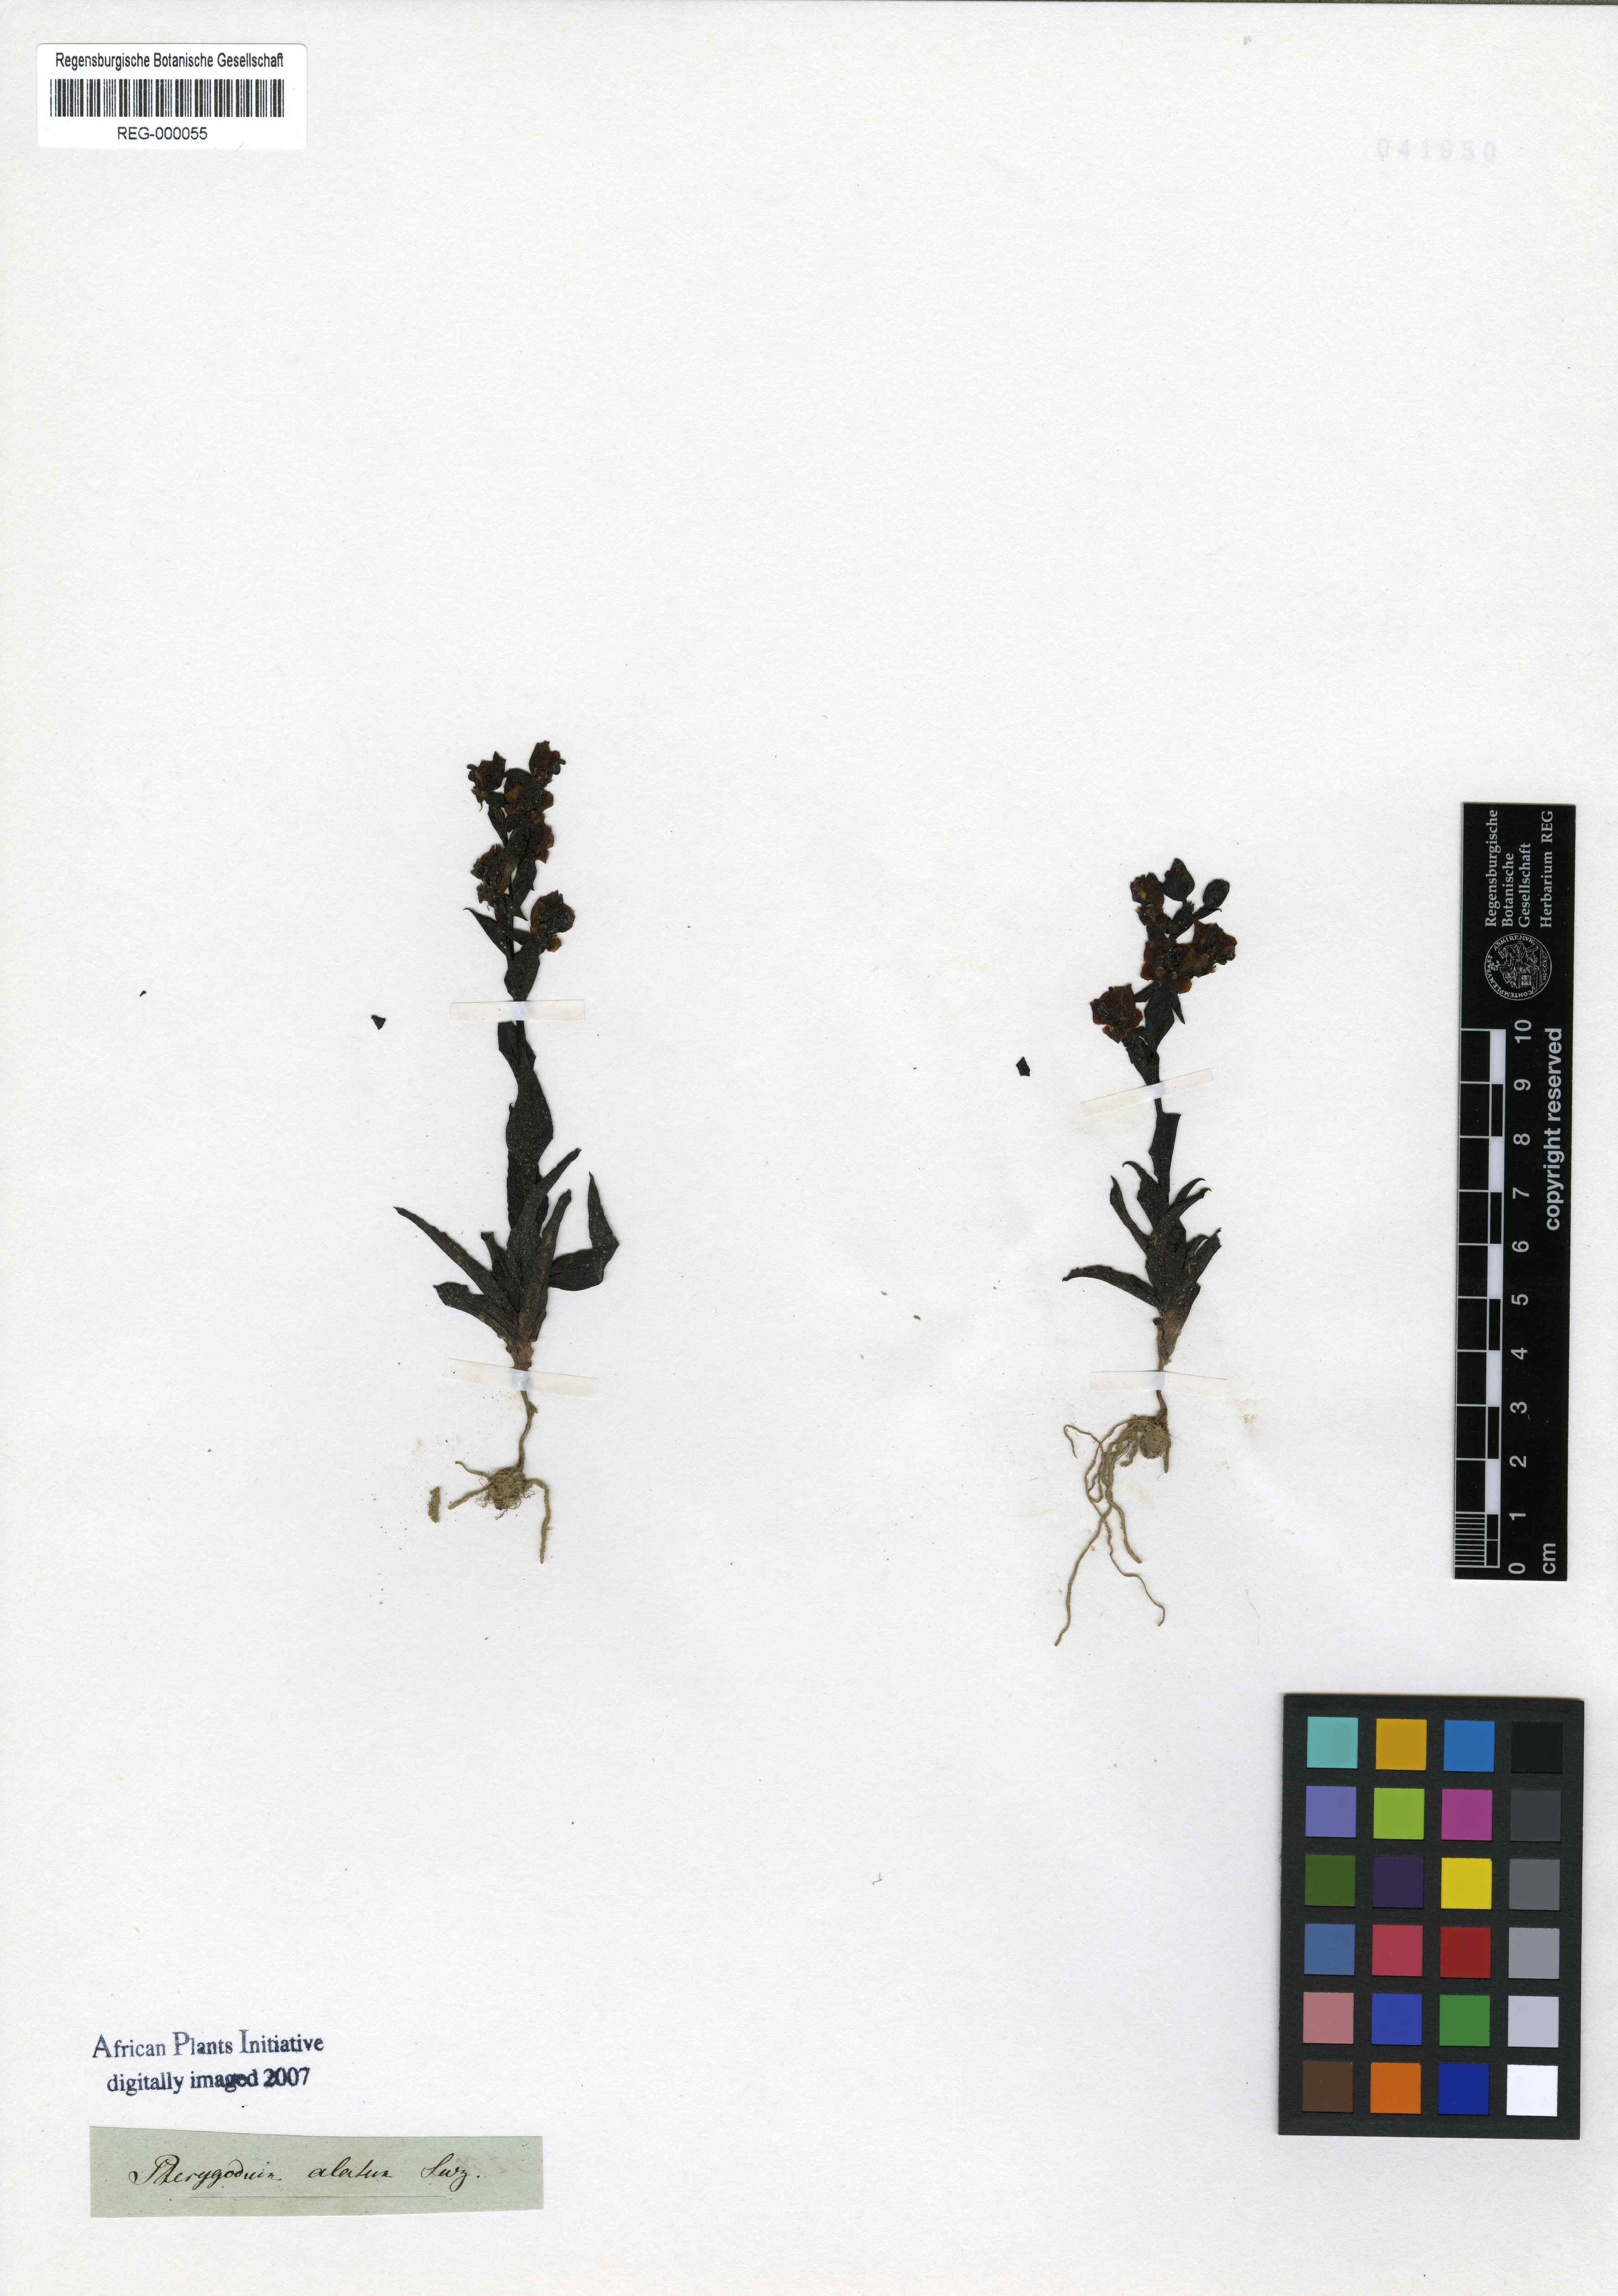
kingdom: Plantae
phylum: Tracheophyta
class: Liliopsida
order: Asparagales
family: Orchidaceae
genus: Pterygodium
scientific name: Pterygodium alatum
